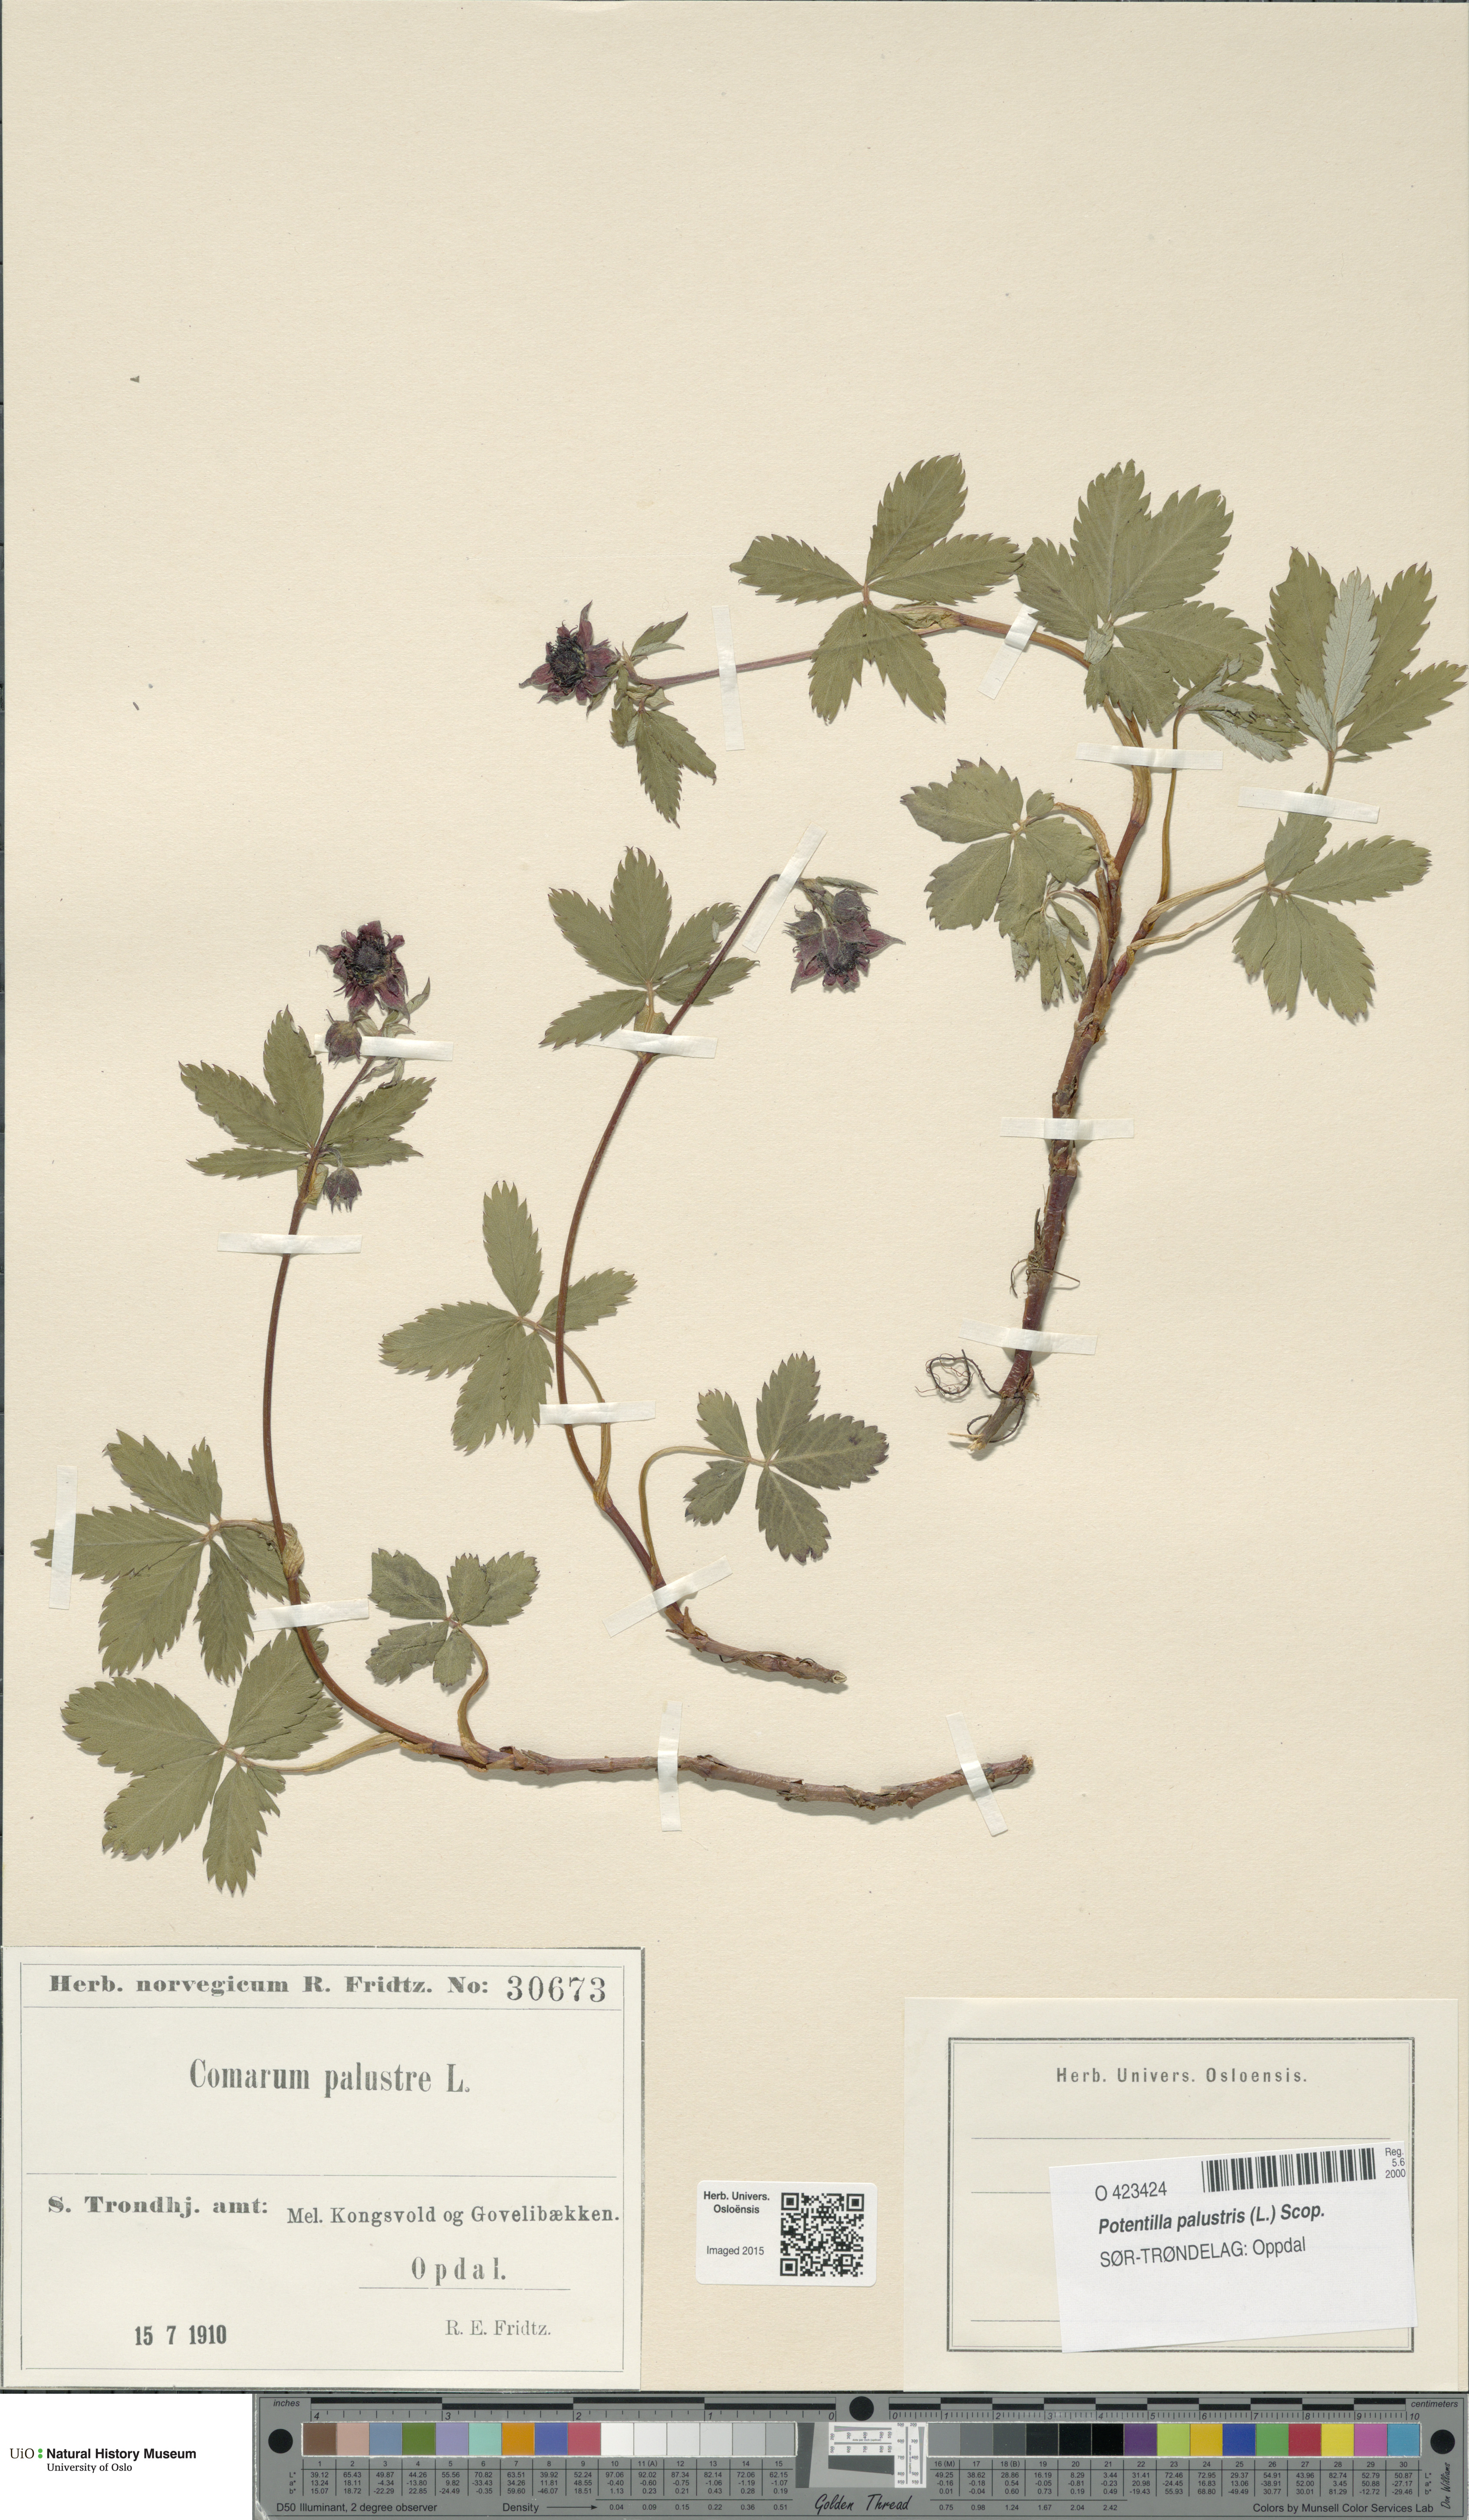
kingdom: Plantae
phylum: Tracheophyta
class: Magnoliopsida
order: Rosales
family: Rosaceae
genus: Comarum
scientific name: Comarum palustre
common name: Marsh cinquefoil
